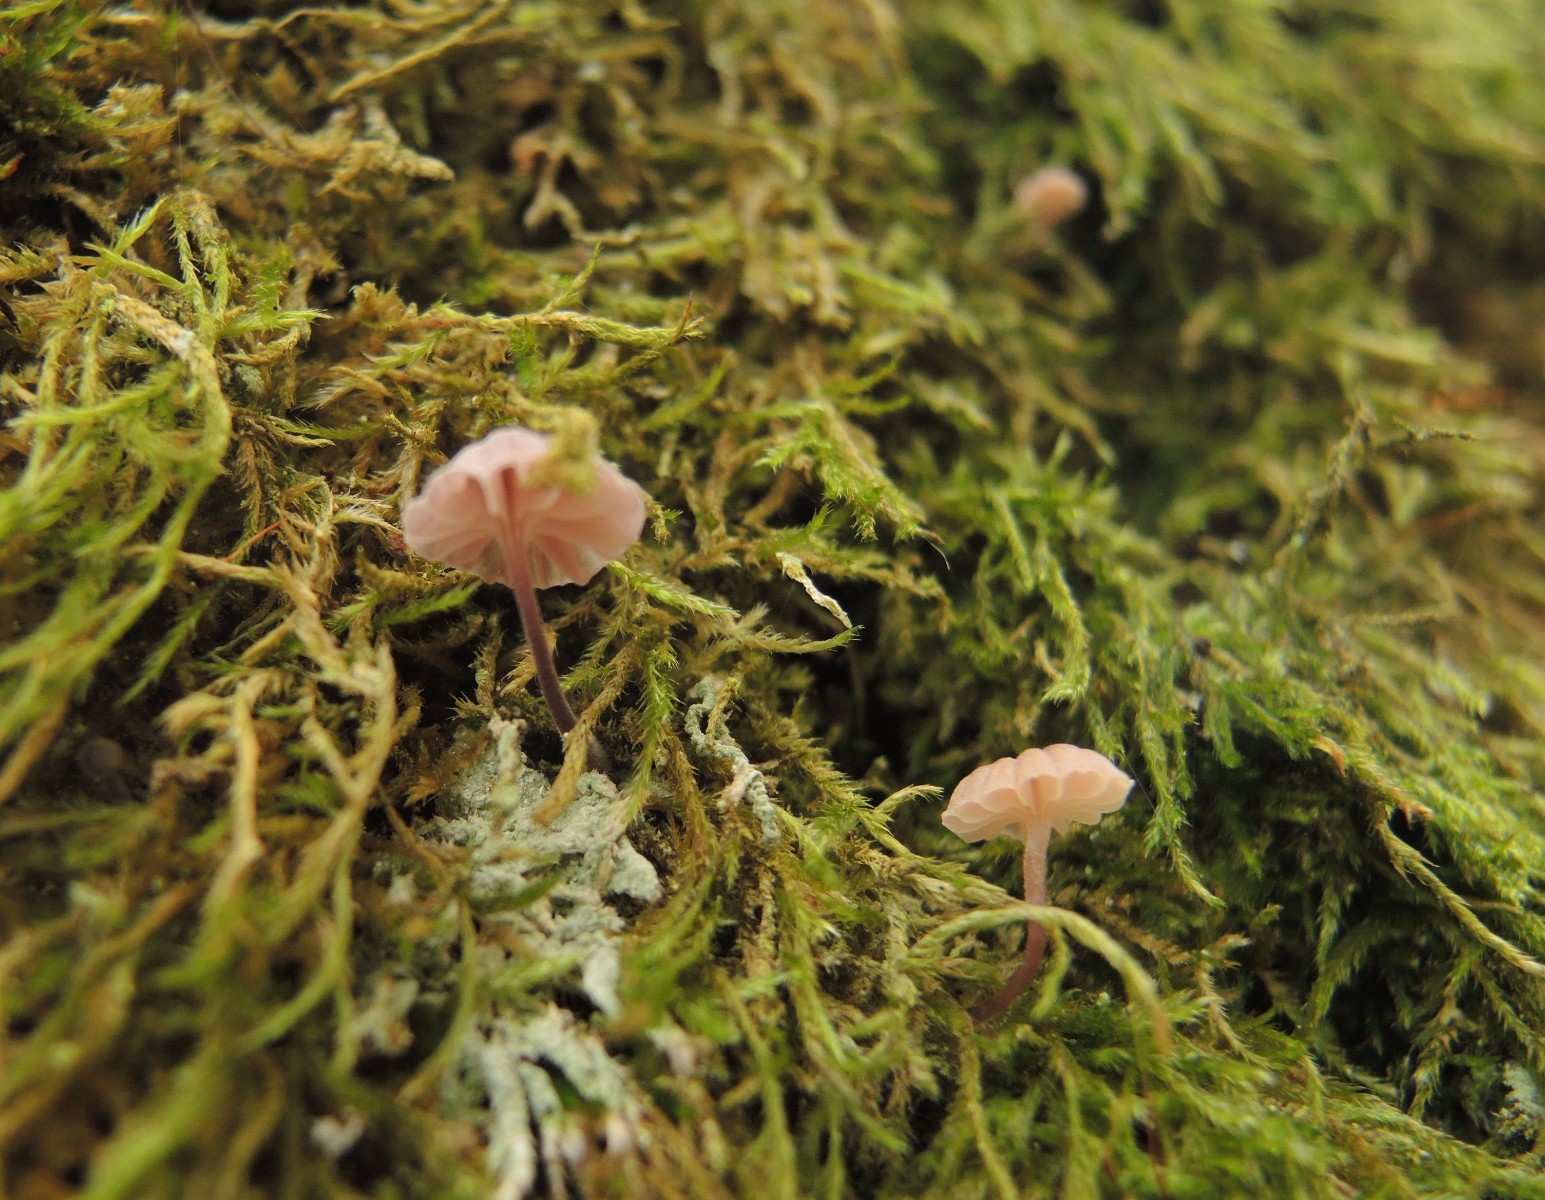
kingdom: Fungi
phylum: Basidiomycota
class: Agaricomycetes
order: Agaricales
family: Mycenaceae
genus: Mycena
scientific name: Mycena meliigena
